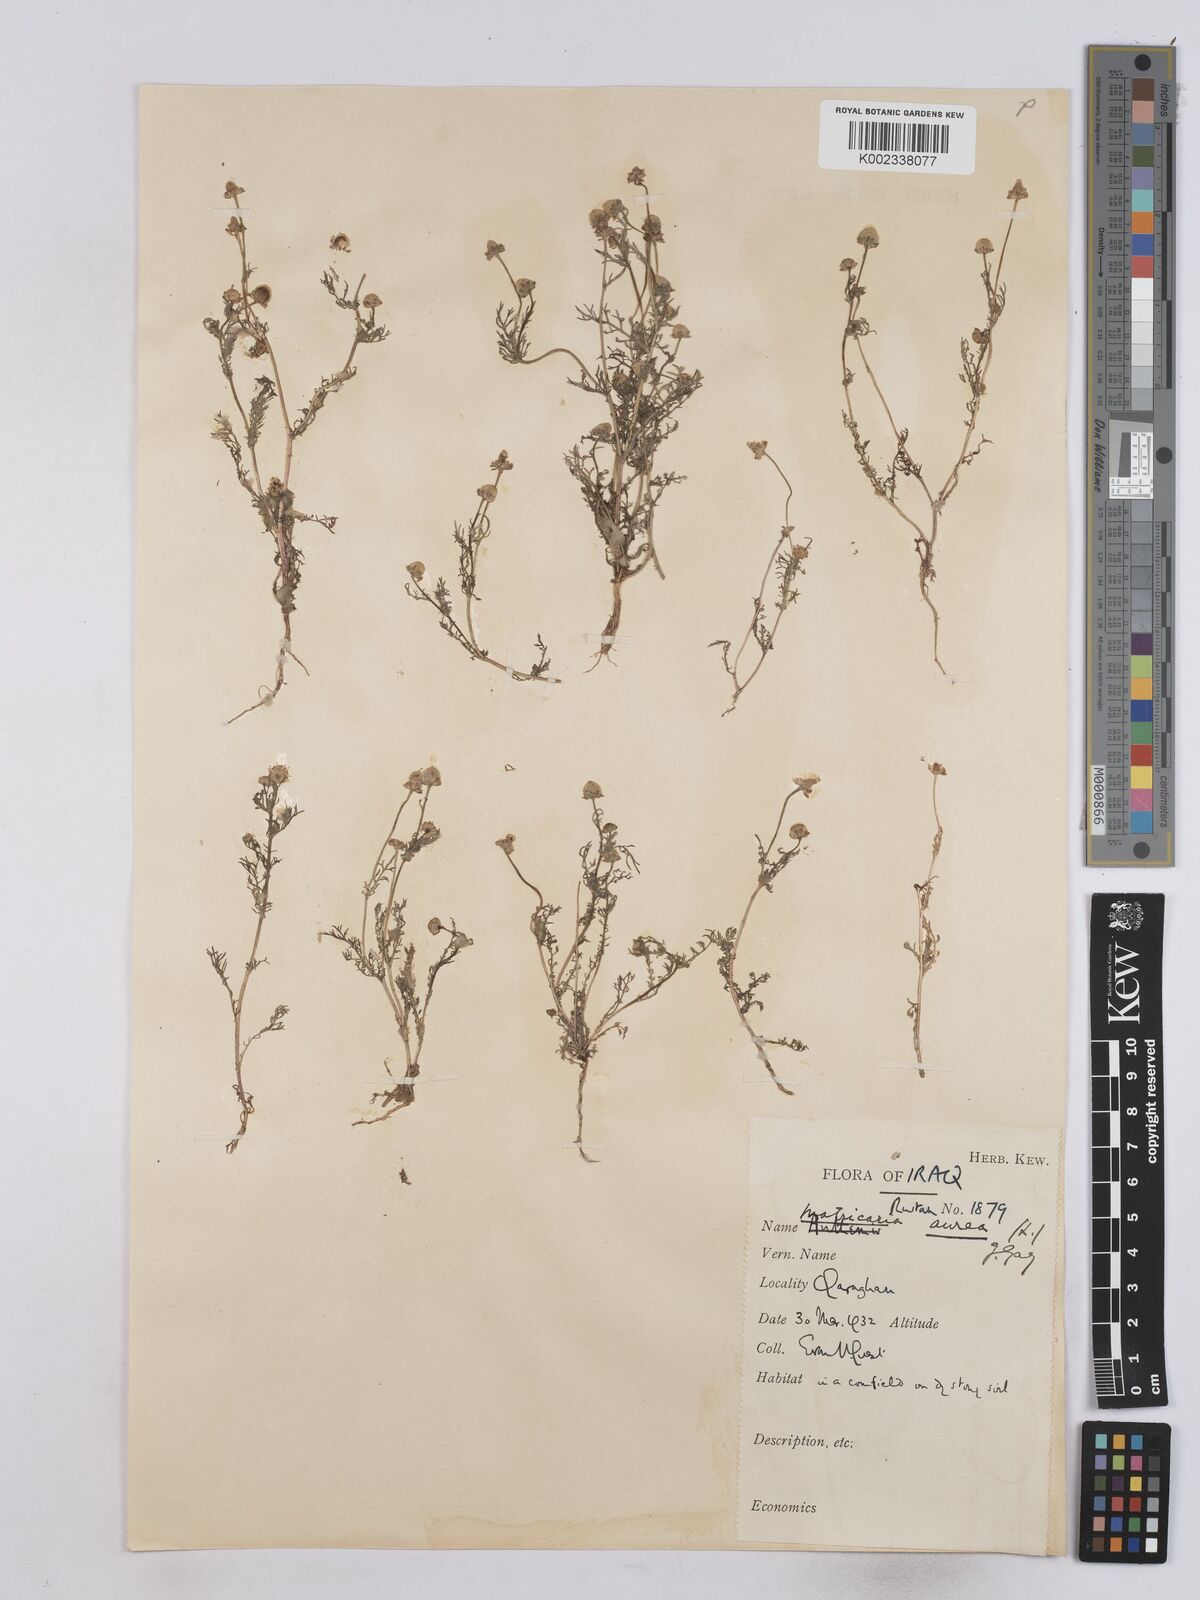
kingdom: Plantae
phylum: Tracheophyta
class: Magnoliopsida
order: Asterales
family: Asteraceae
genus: Matricaria
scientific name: Matricaria aurea
